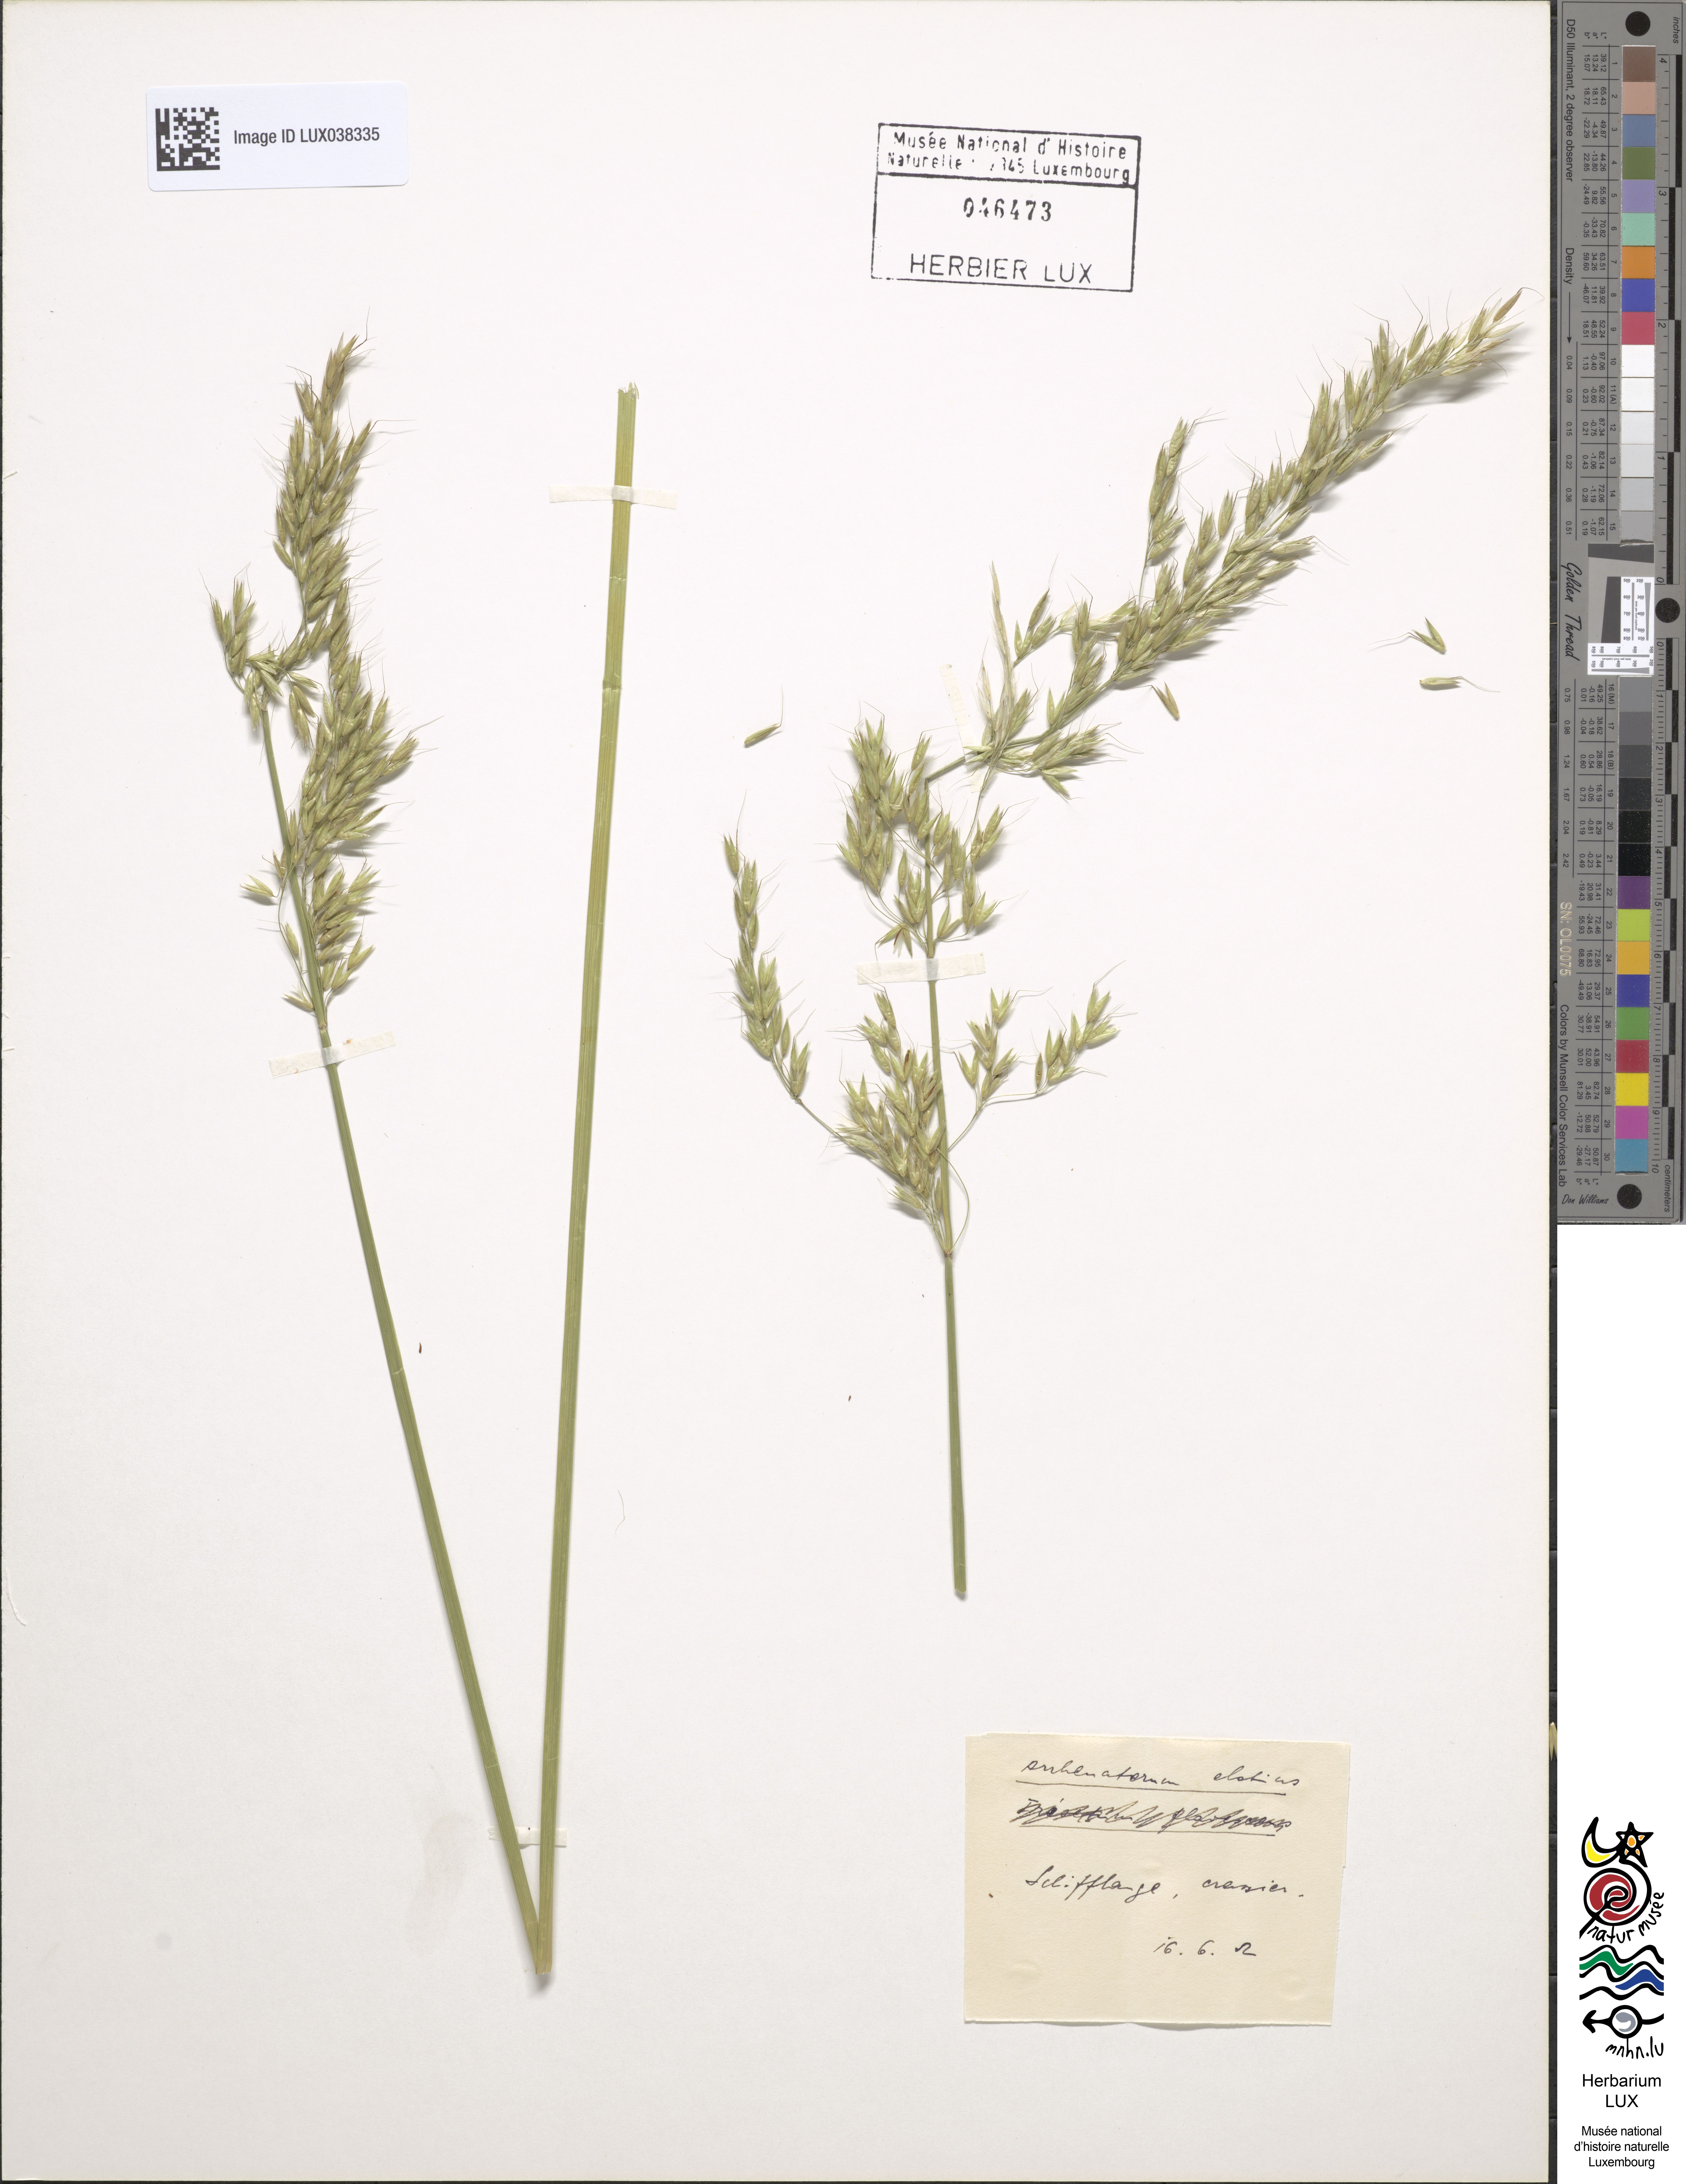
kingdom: Plantae
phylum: Tracheophyta
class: Liliopsida
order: Poales
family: Poaceae
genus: Arrhenatherum
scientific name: Arrhenatherum elatius
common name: Tall oatgrass
